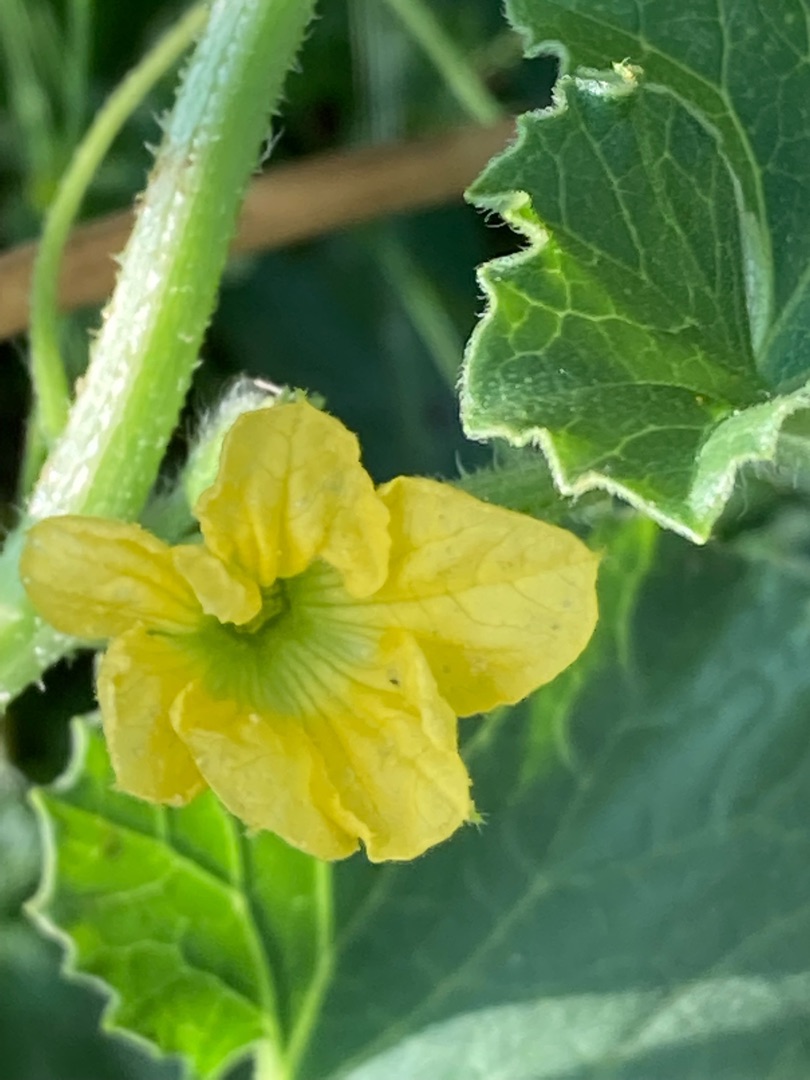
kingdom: Plantae
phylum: Tracheophyta
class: Magnoliopsida
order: Cucurbitales
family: Cucurbitaceae
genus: Cucumis
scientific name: Cucumis melo
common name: Melon
